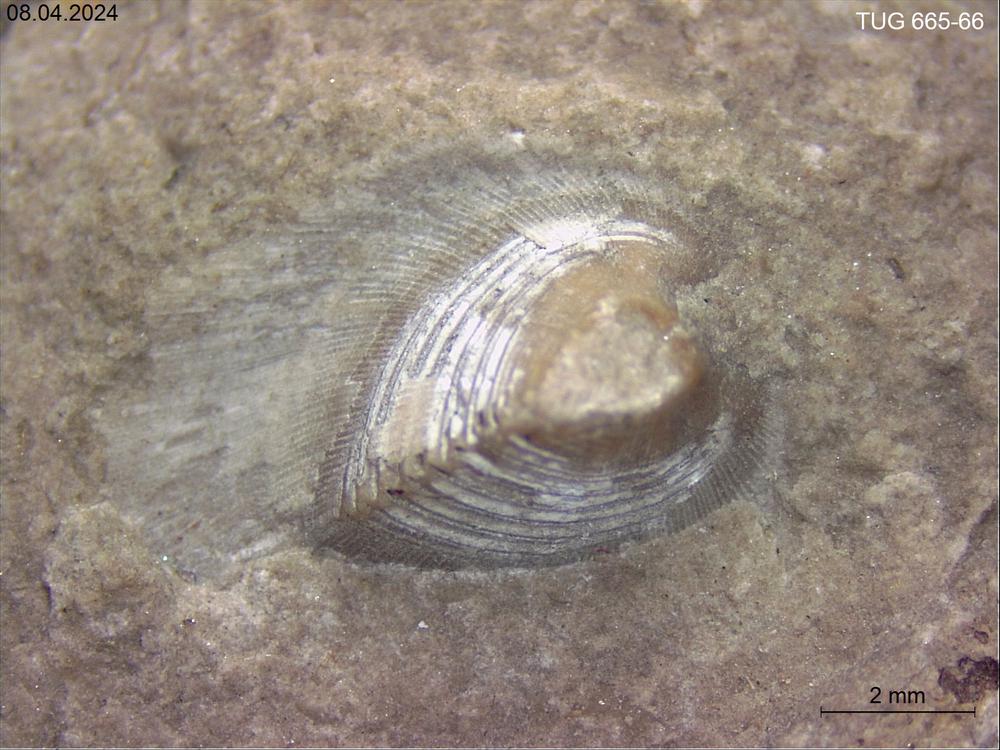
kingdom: Animalia
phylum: Mollusca
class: Rostroconchia
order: Conocardiida
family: Hippocardiidae
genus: Hippocardia
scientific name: Hippocardia
